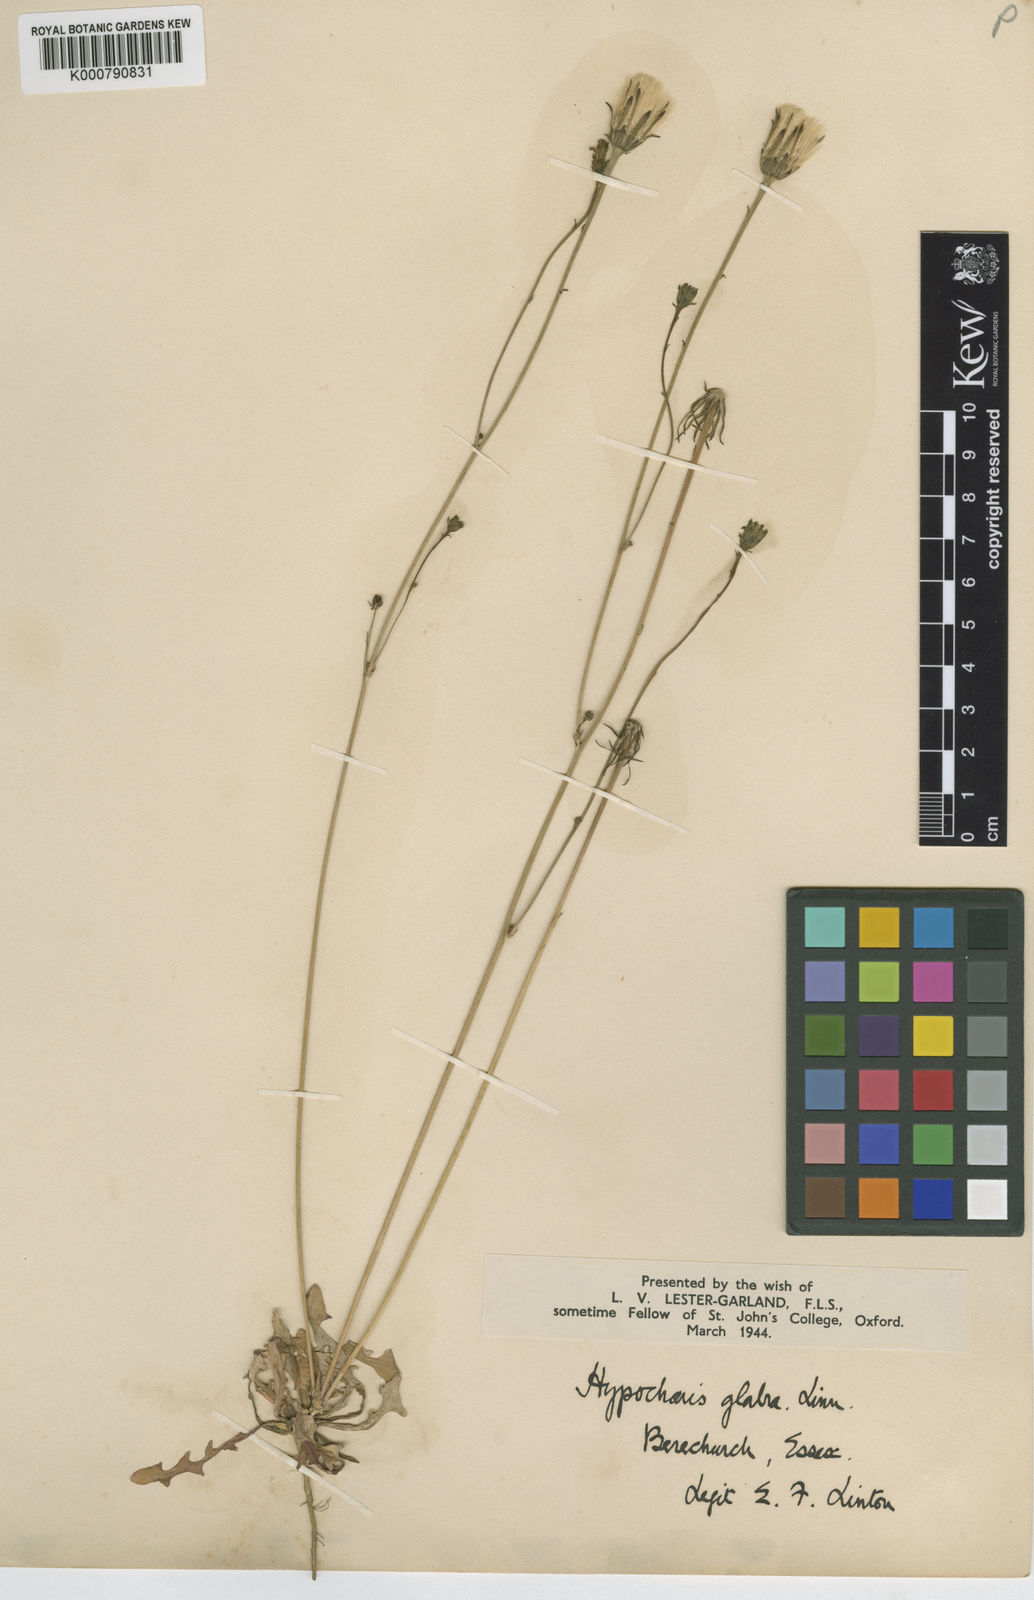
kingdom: Plantae
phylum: Tracheophyta
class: Magnoliopsida
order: Asterales
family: Asteraceae
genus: Hypochaeris
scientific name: Hypochaeris glabra
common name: Smooth catsear
